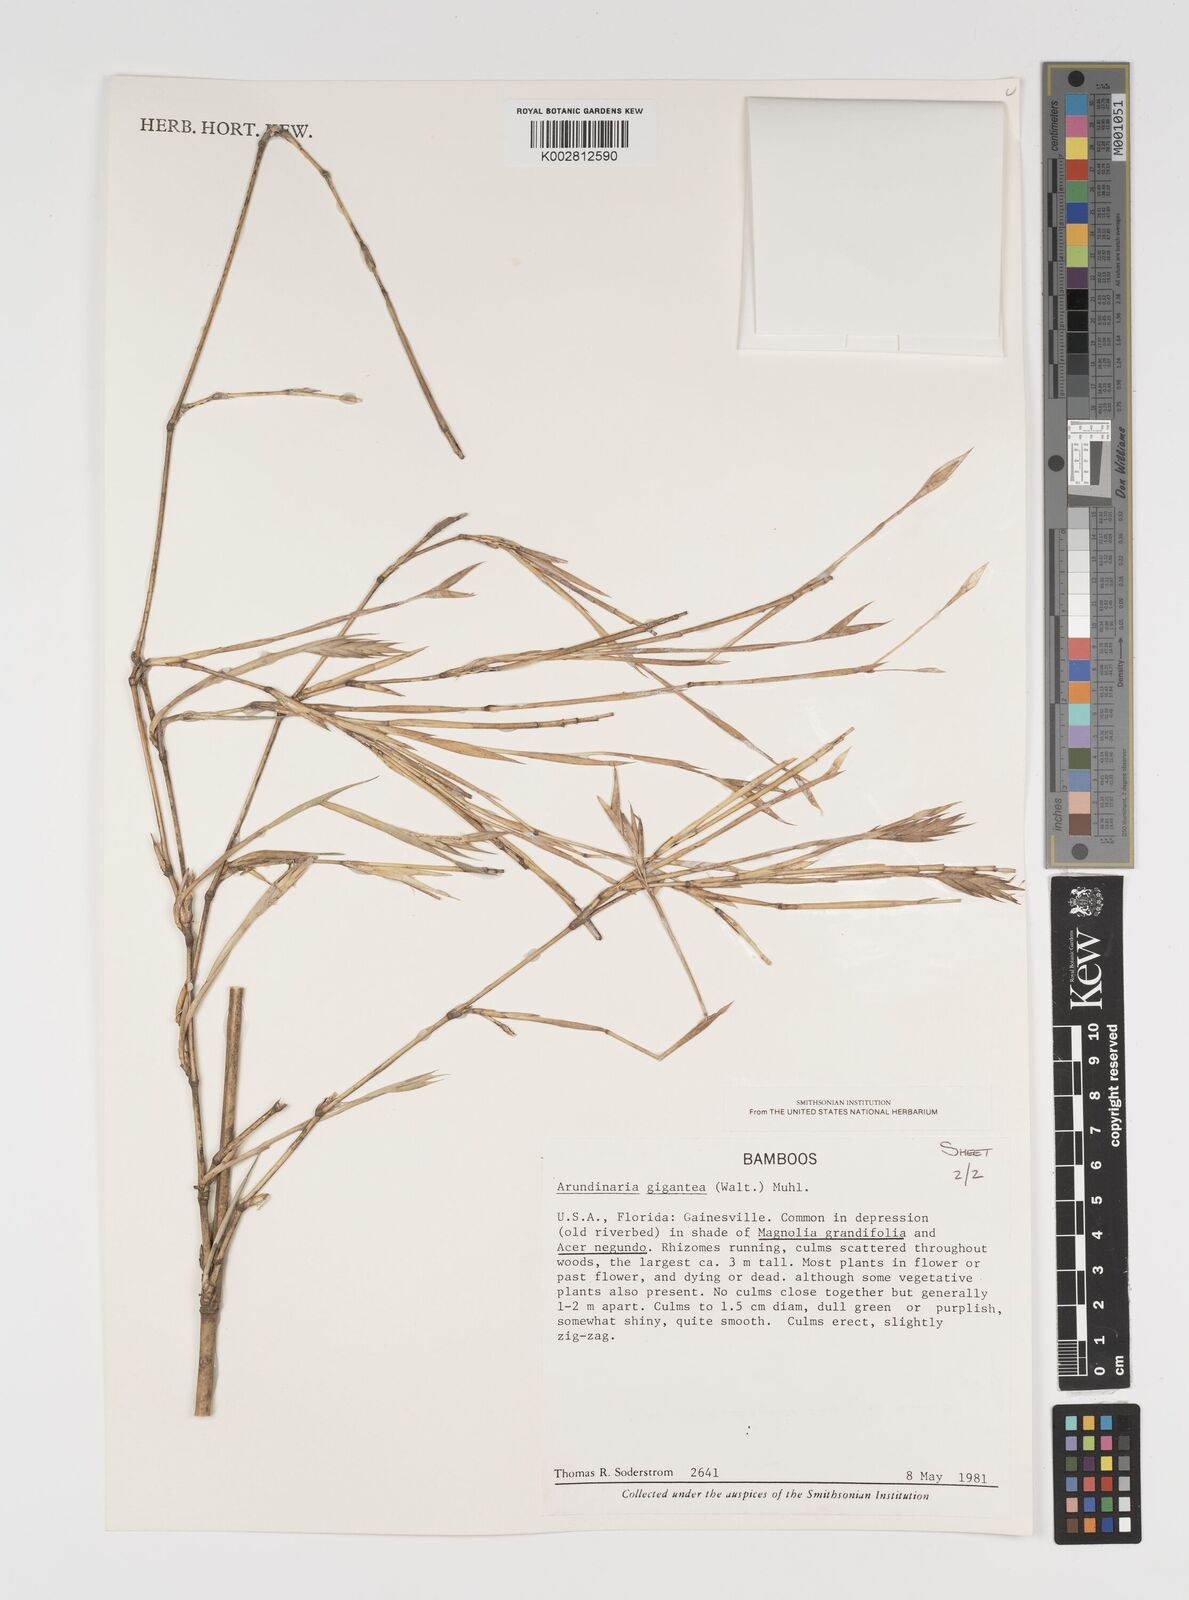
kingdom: Plantae
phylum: Tracheophyta
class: Liliopsida
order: Poales
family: Poaceae
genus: Arundinaria
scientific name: Arundinaria gigantea
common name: Giant cane
